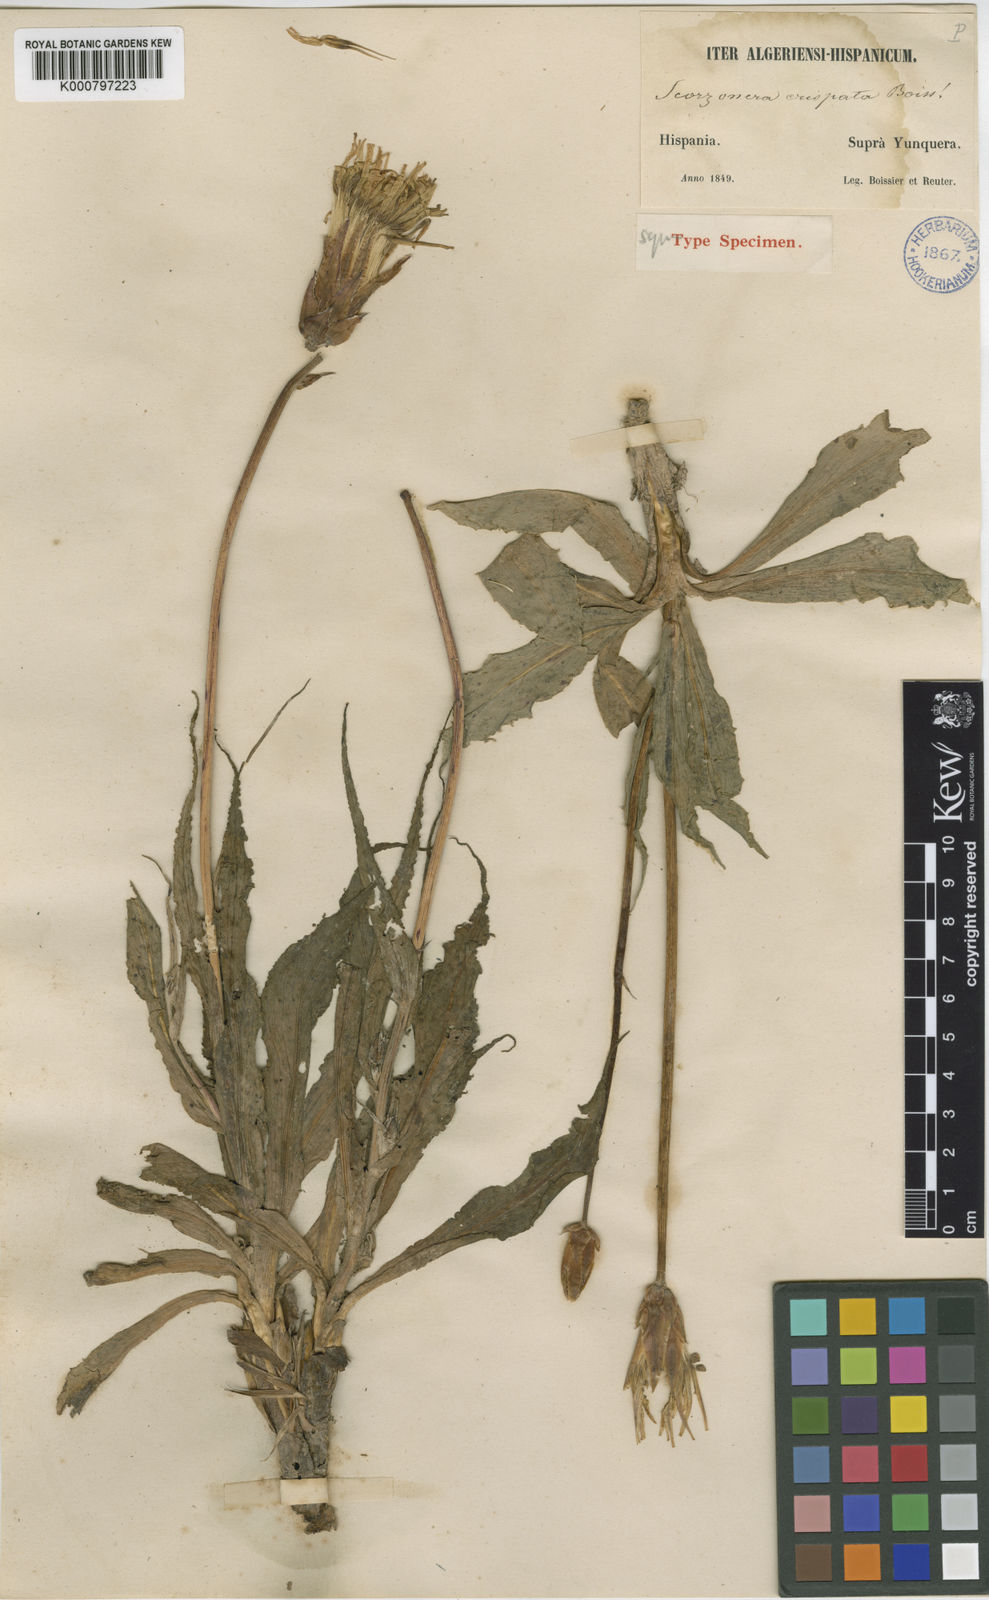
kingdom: Plantae
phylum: Tracheophyta
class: Magnoliopsida
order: Asterales
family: Asteraceae
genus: Pseudopodospermum
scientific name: Pseudopodospermum crispatulum
